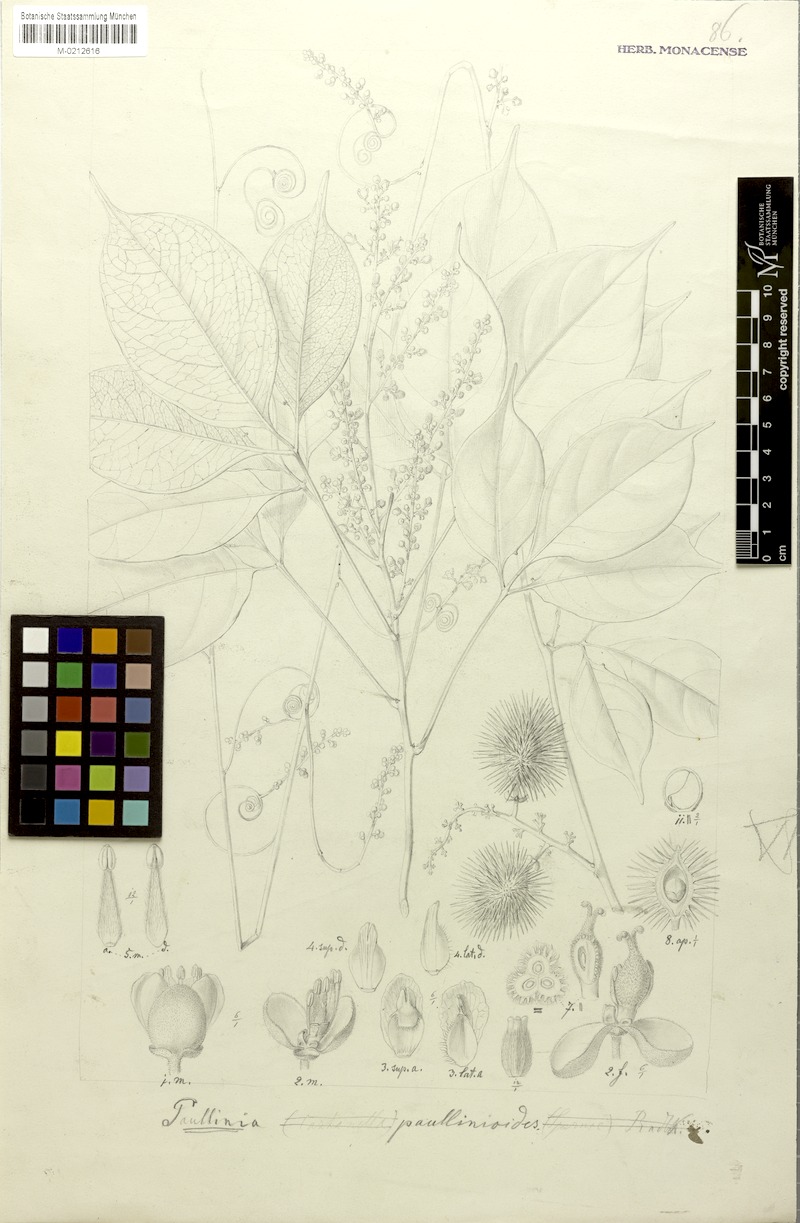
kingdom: Plantae
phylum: Tracheophyta
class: Magnoliopsida
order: Sapindales
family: Sapindaceae
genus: Paullinia
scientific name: Paullinia granatensis
